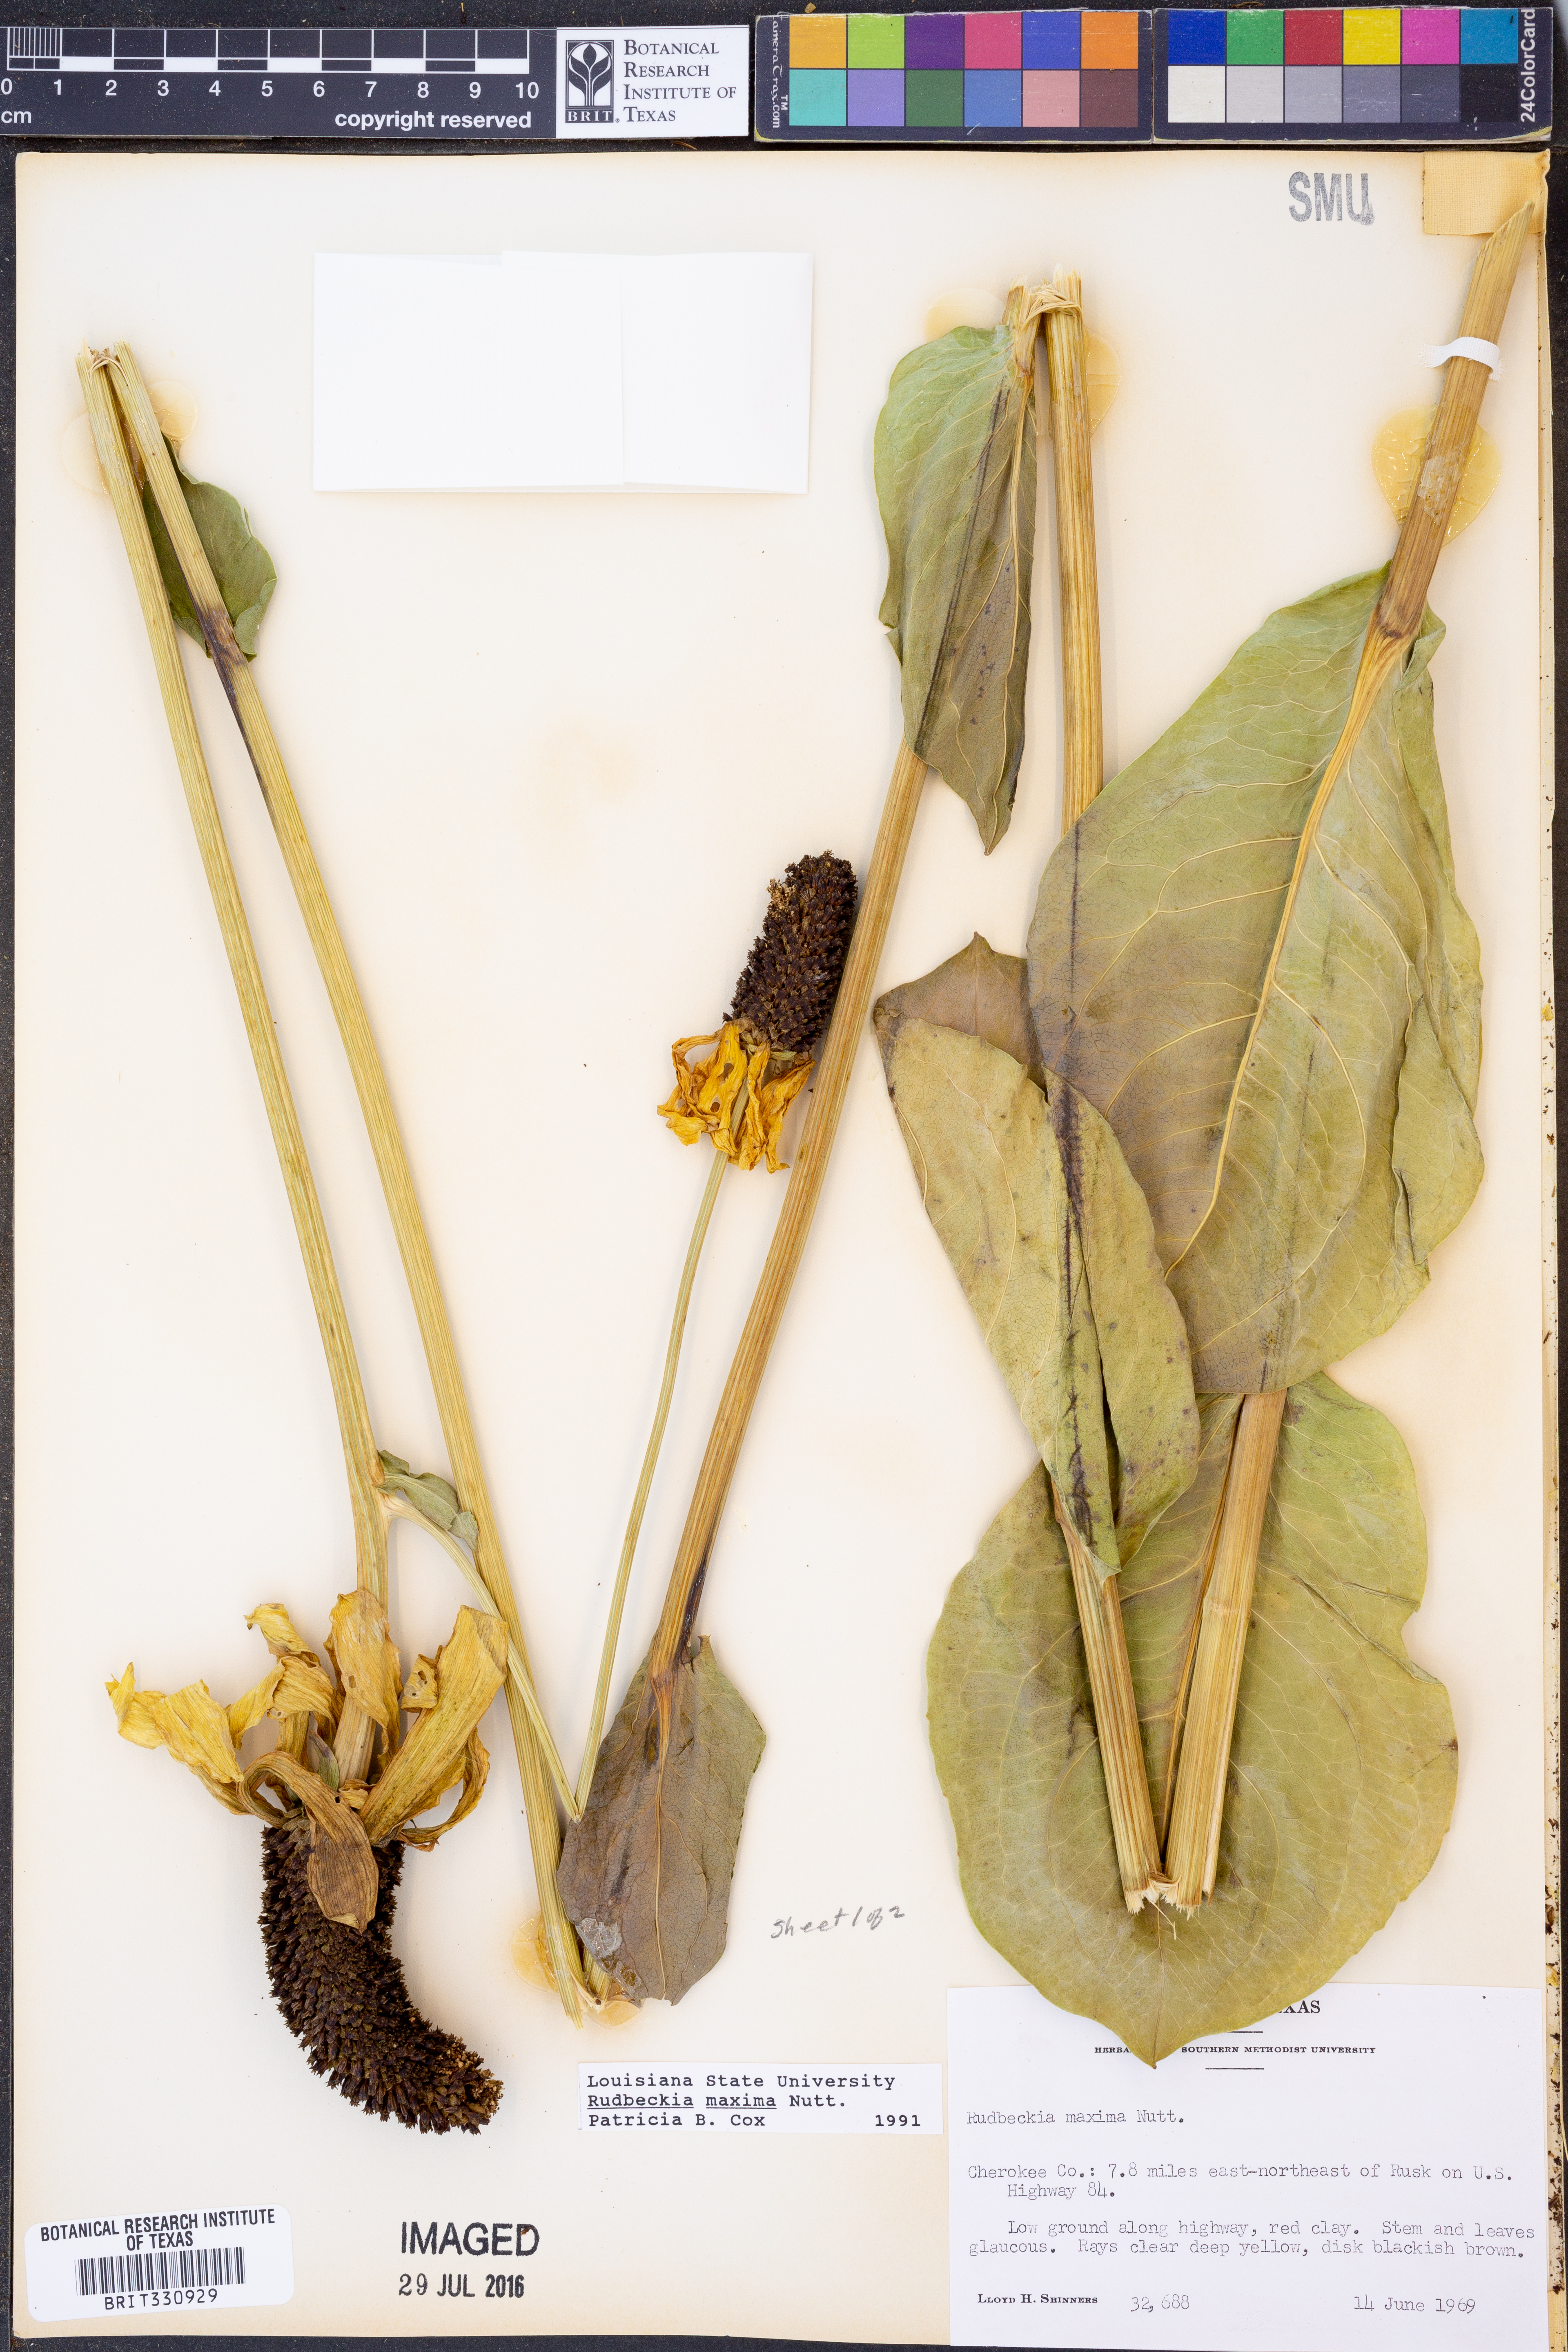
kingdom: Plantae
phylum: Tracheophyta
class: Magnoliopsida
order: Asterales
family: Asteraceae
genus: Rudbeckia
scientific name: Rudbeckia maxima
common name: Cabbage coneflower
